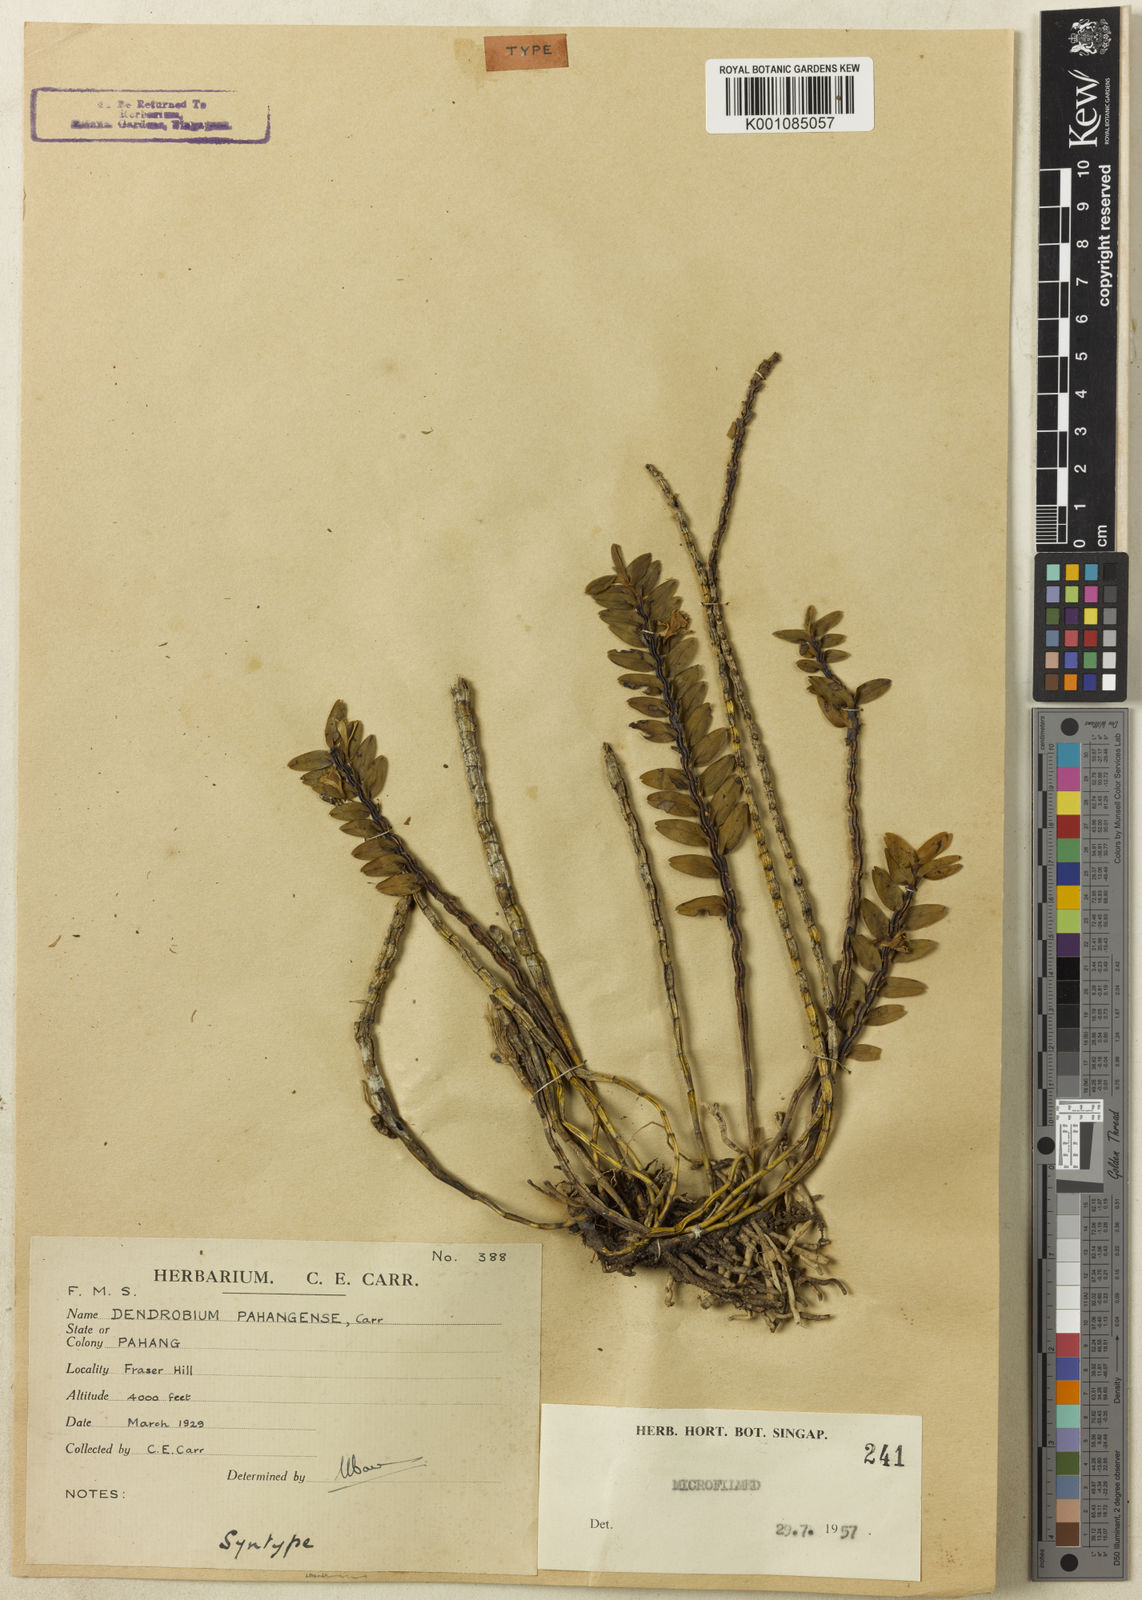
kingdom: Plantae
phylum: Tracheophyta
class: Liliopsida
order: Asparagales
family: Orchidaceae
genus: Dendrobium
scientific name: Dendrobium pahangense
